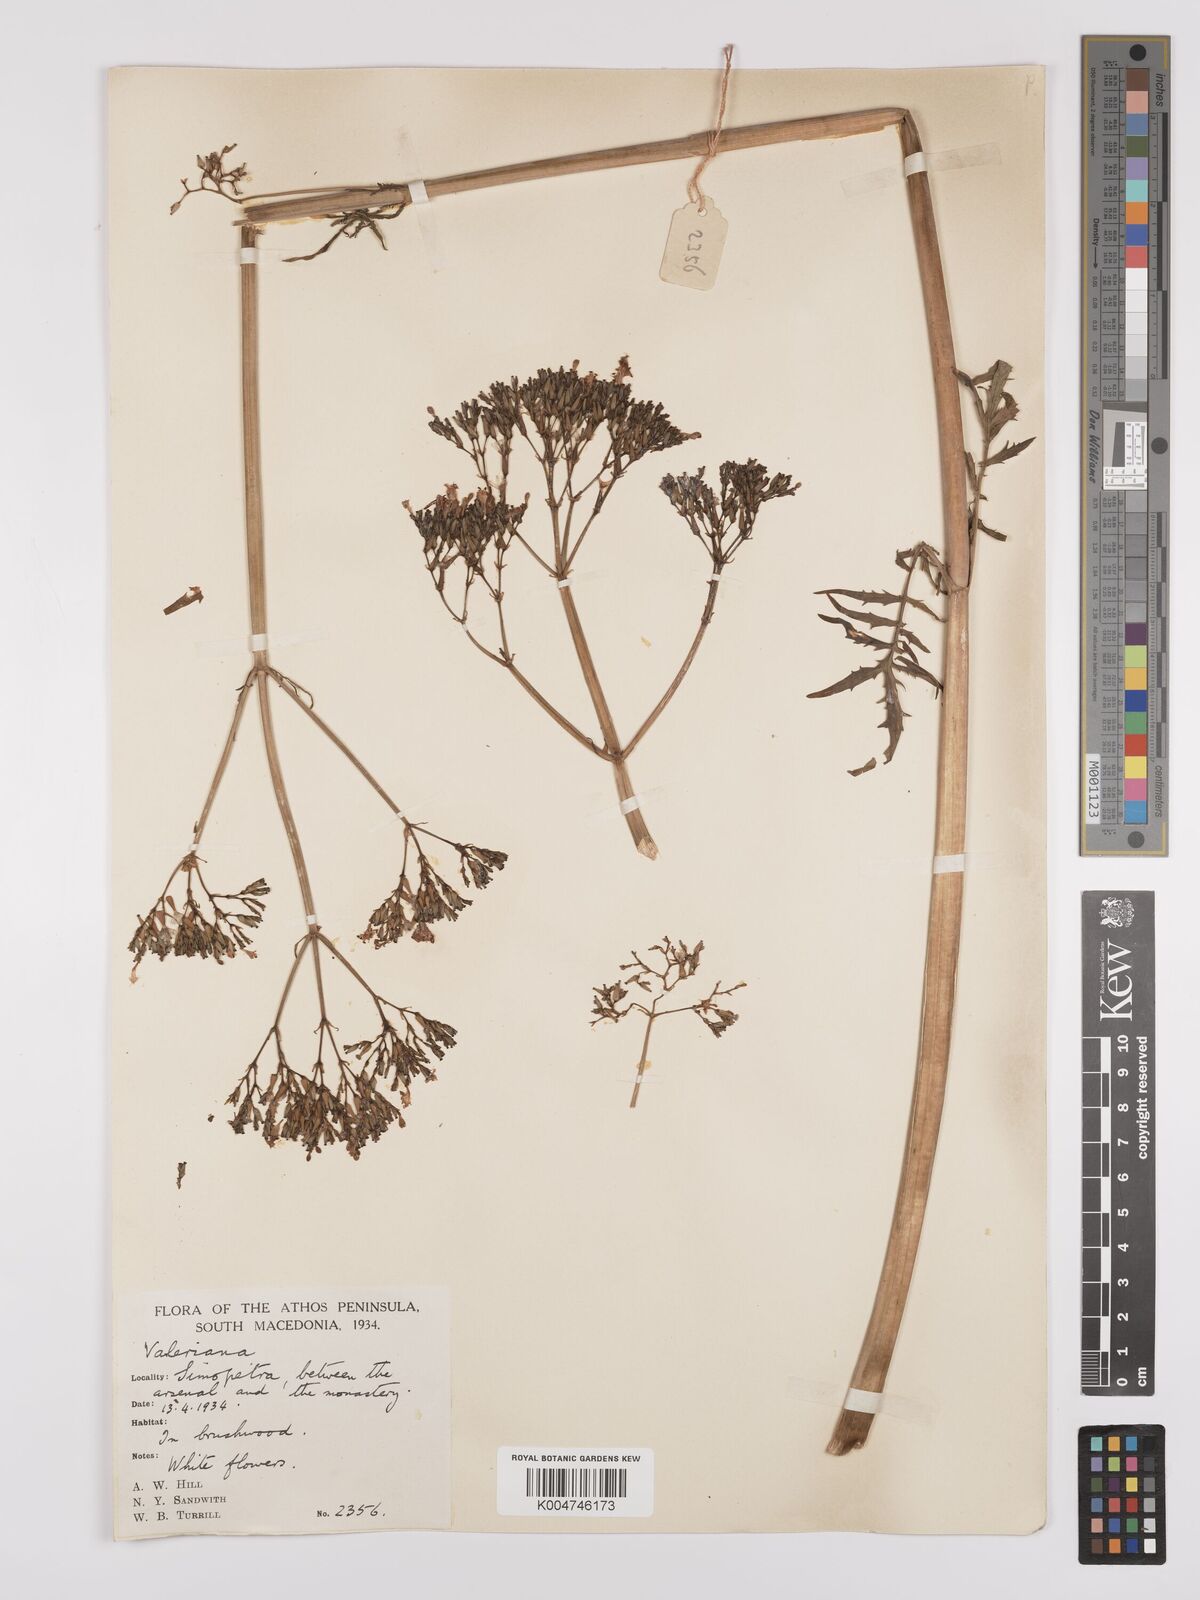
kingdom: Plantae
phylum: Tracheophyta
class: Magnoliopsida
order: Dipsacales
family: Caprifoliaceae
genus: Valeriana
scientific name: Valeriana dioscoridis
